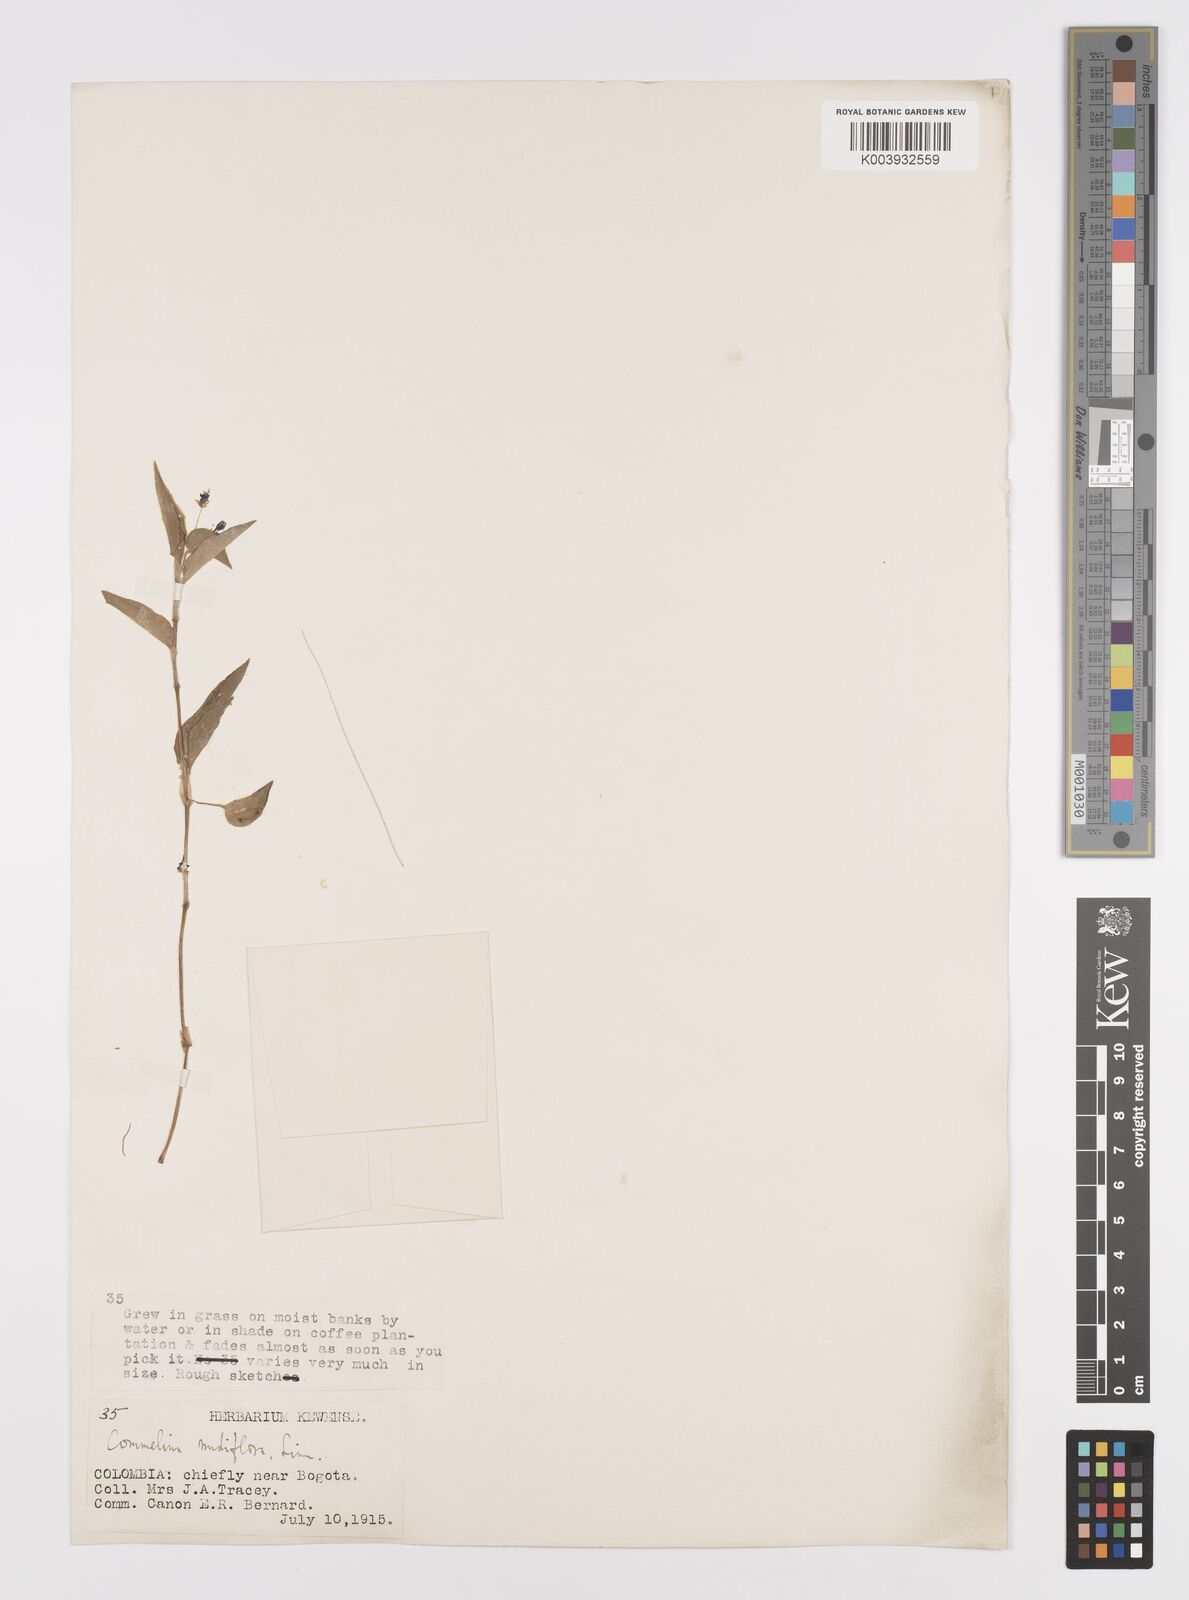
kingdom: Plantae
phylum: Tracheophyta
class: Liliopsida
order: Commelinales
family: Commelinaceae
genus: Commelina
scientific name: Commelina diffusa
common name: Climbing dayflower
